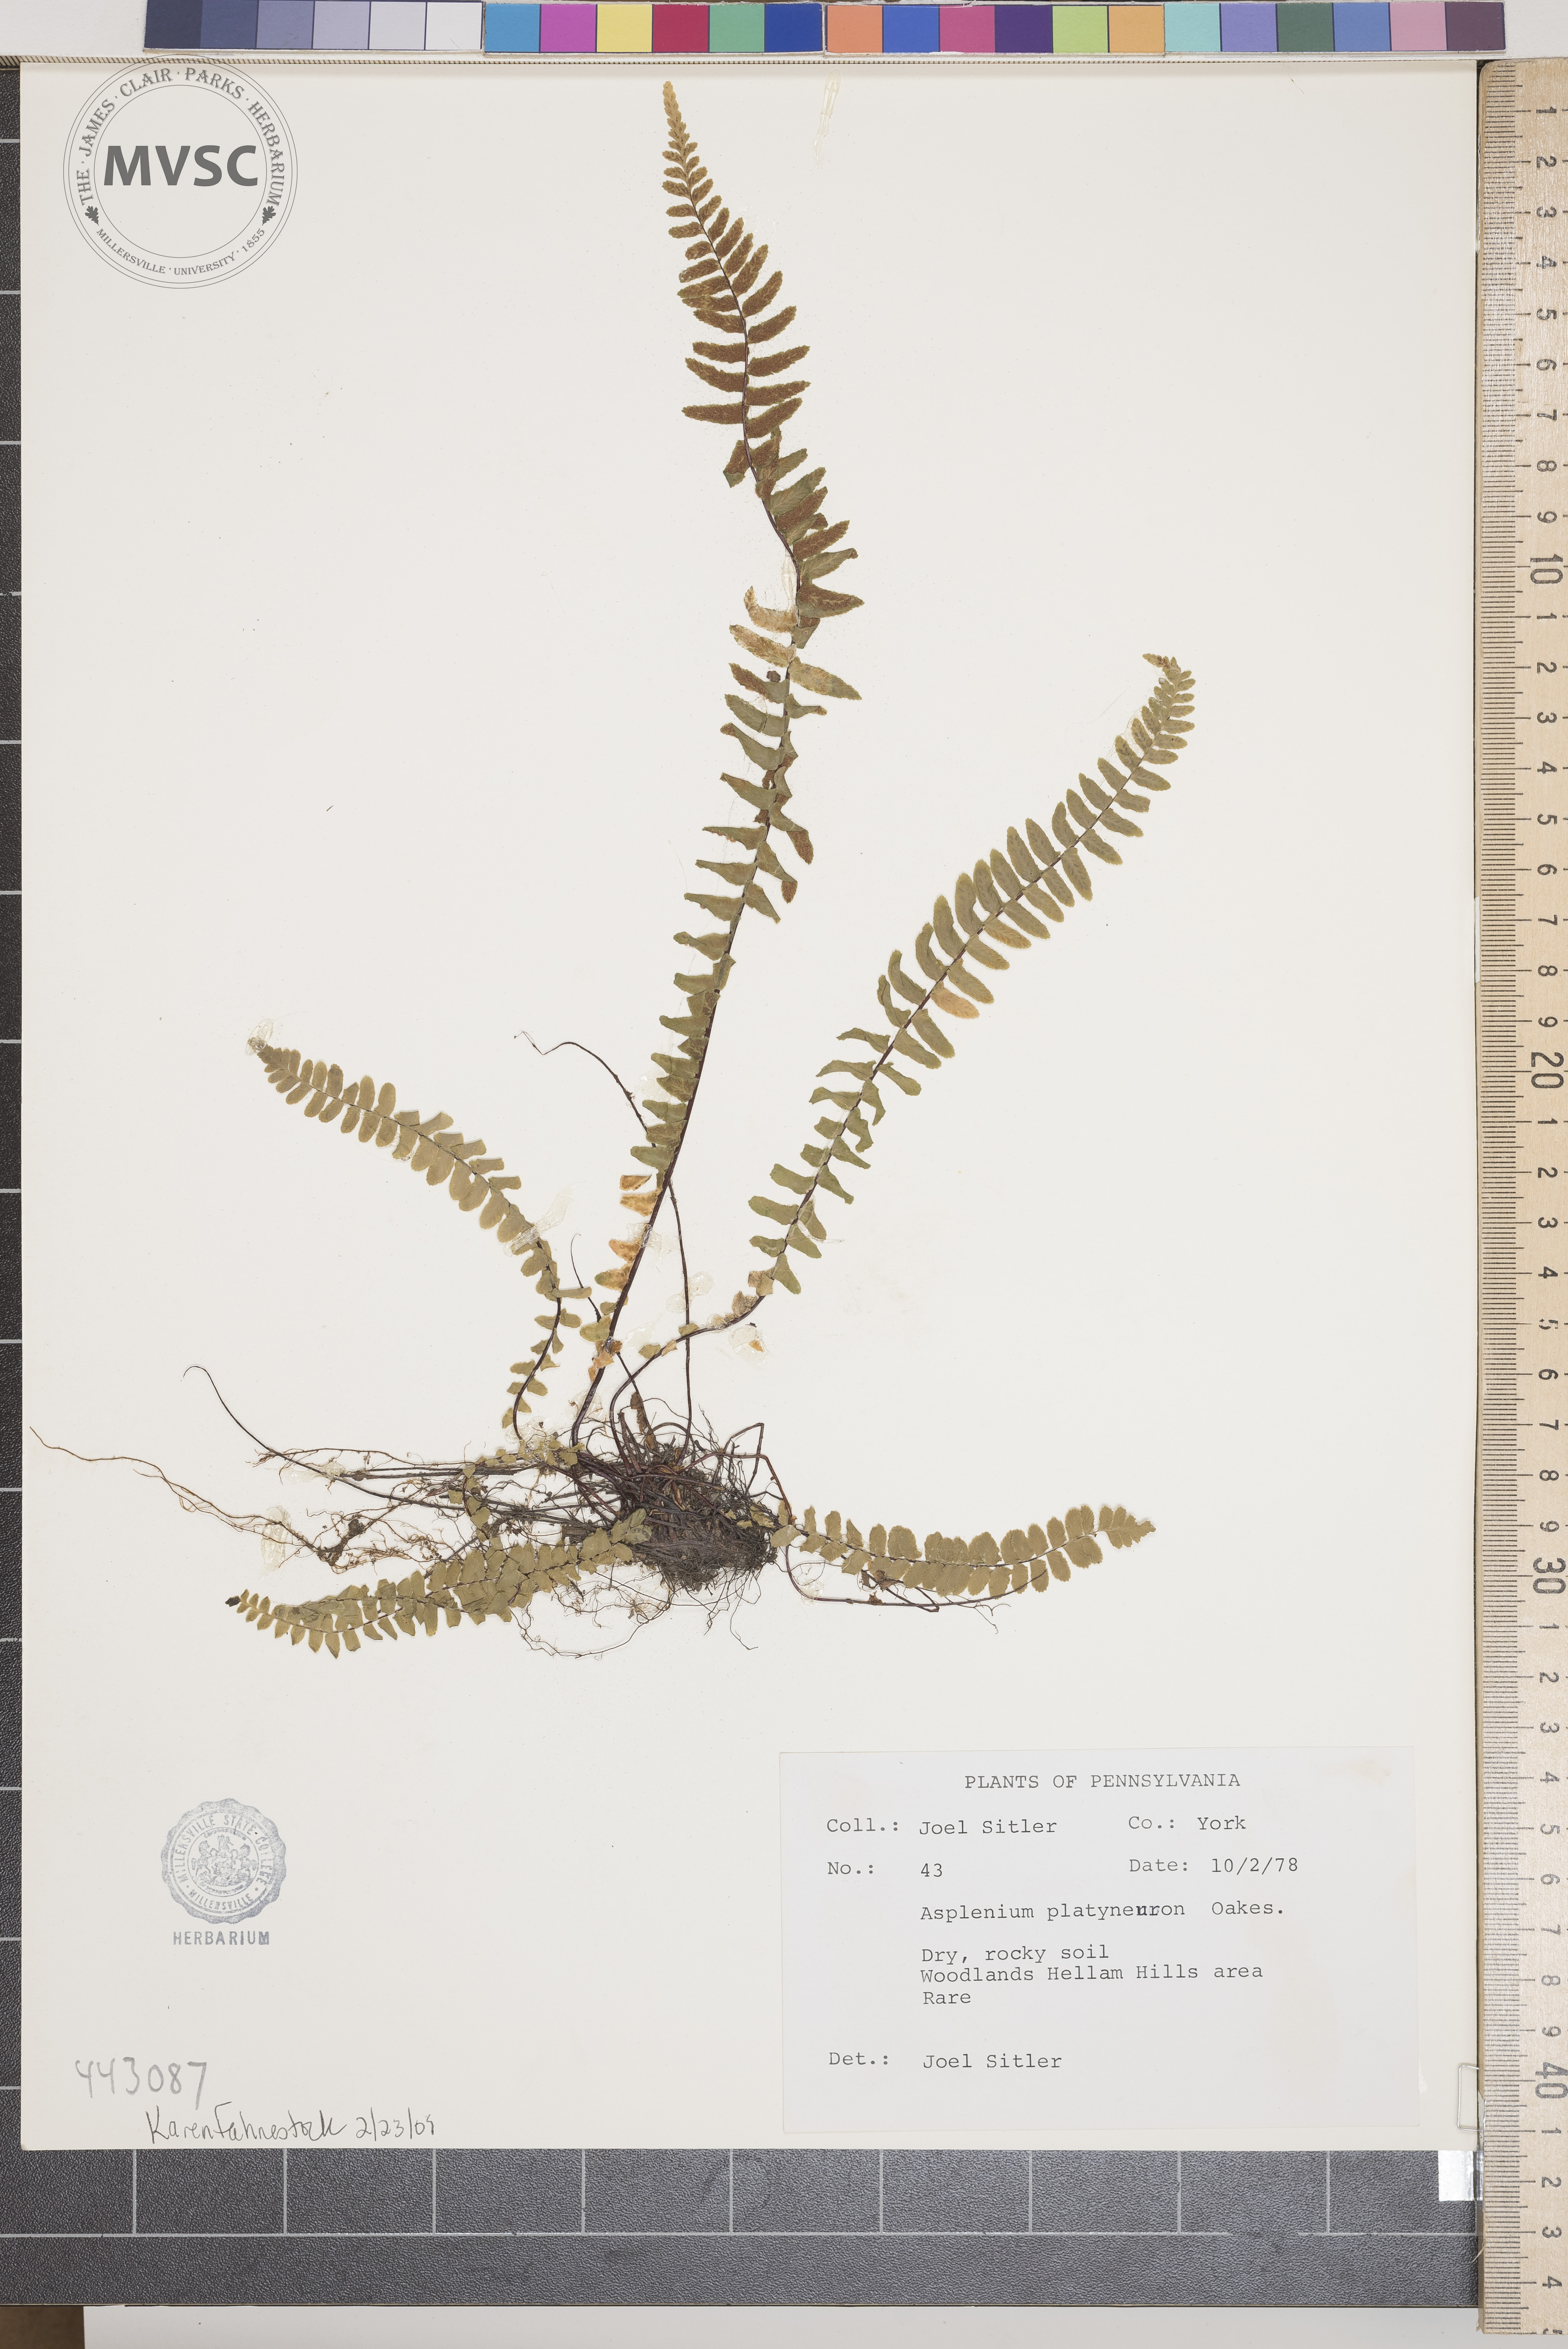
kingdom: Plantae
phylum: Tracheophyta
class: Polypodiopsida
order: Polypodiales
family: Aspleniaceae
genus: Asplenium
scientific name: Asplenium platyneuron
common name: Ebony spleenwort
